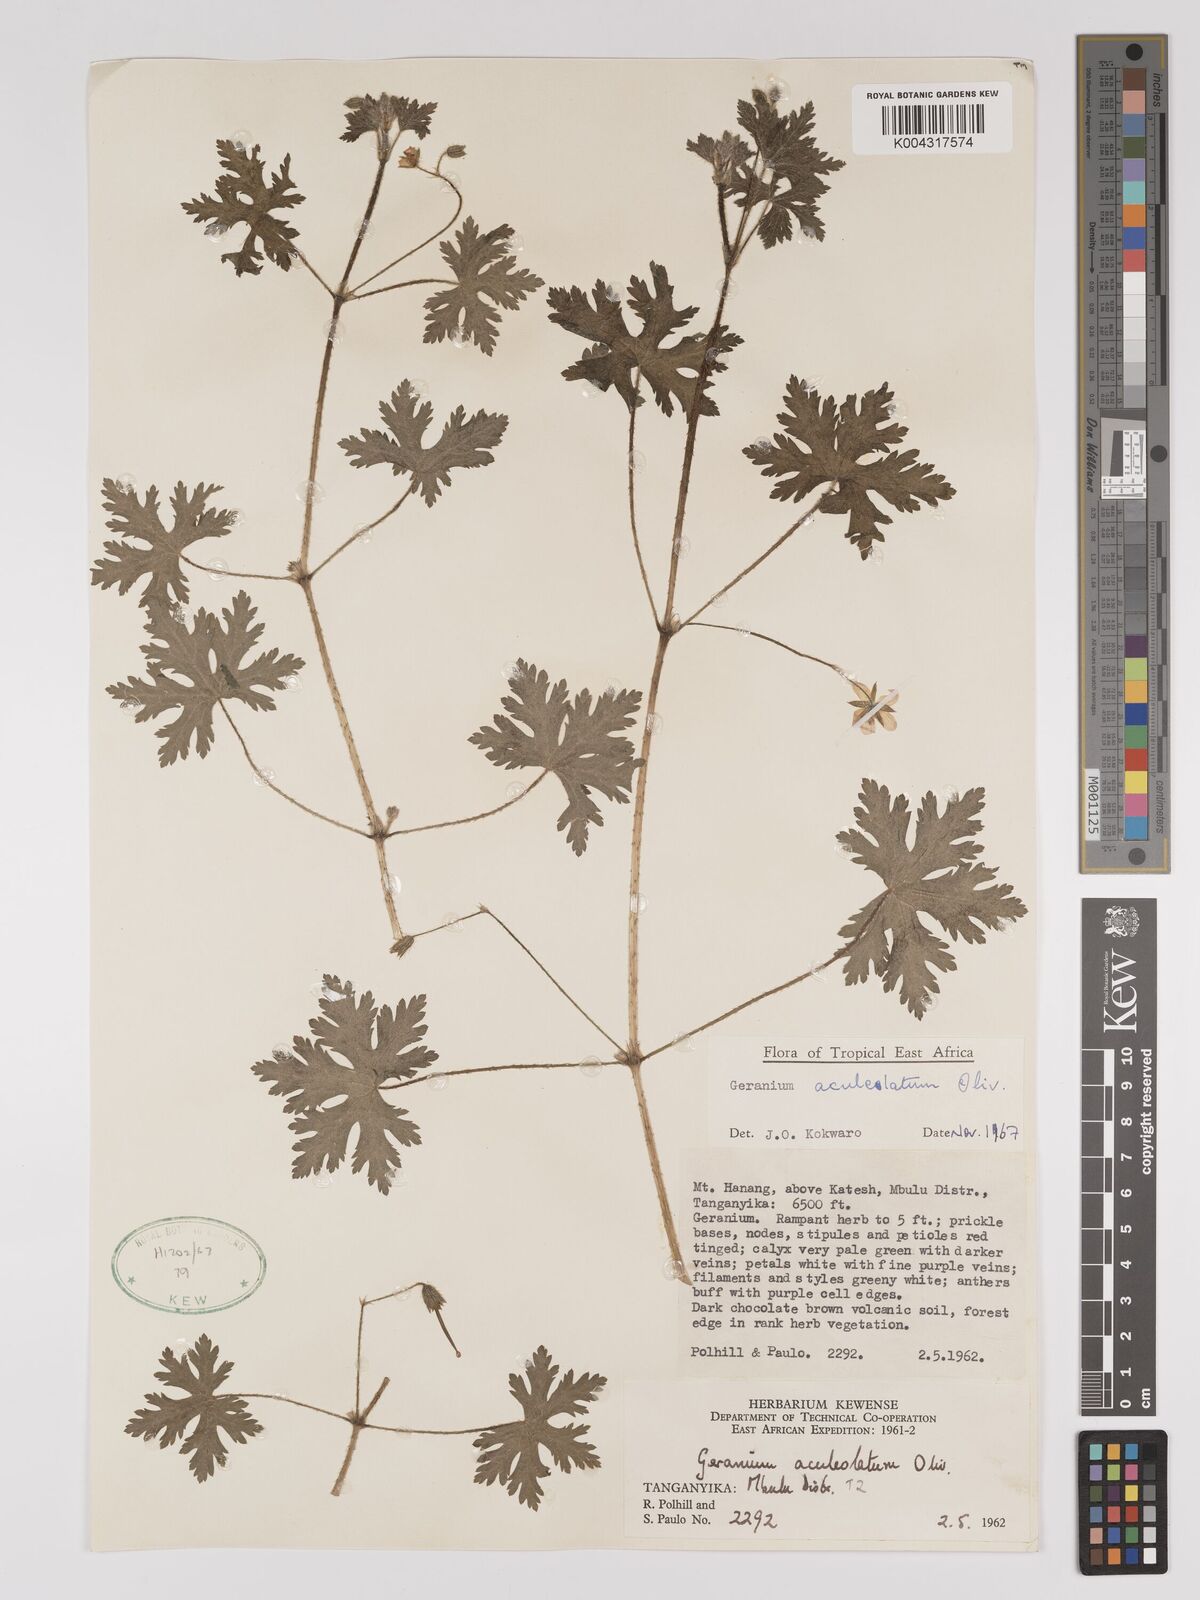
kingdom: Plantae
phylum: Tracheophyta
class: Magnoliopsida
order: Geraniales
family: Geraniaceae
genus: Geranium
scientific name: Geranium aculeolatum
